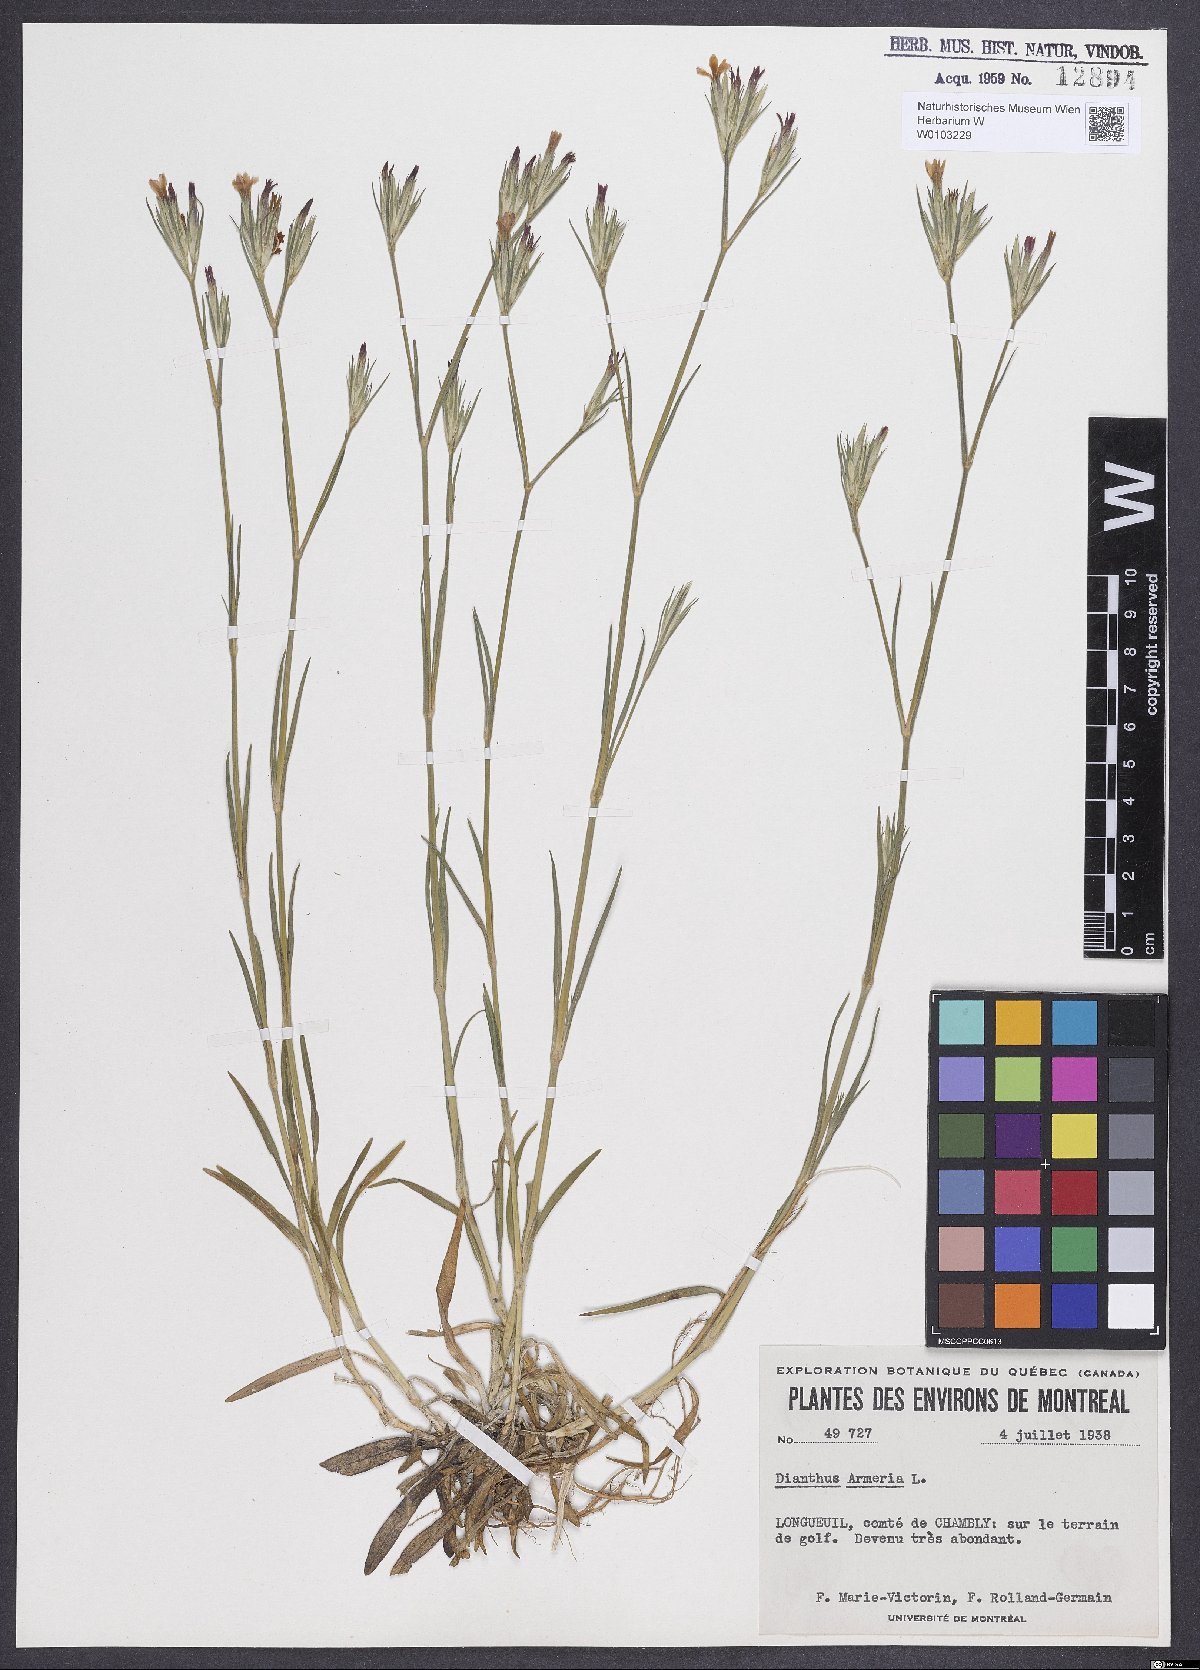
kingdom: Plantae
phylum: Tracheophyta
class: Magnoliopsida
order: Caryophyllales
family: Caryophyllaceae
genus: Dianthus
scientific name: Dianthus armeria
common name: Deptford pink
